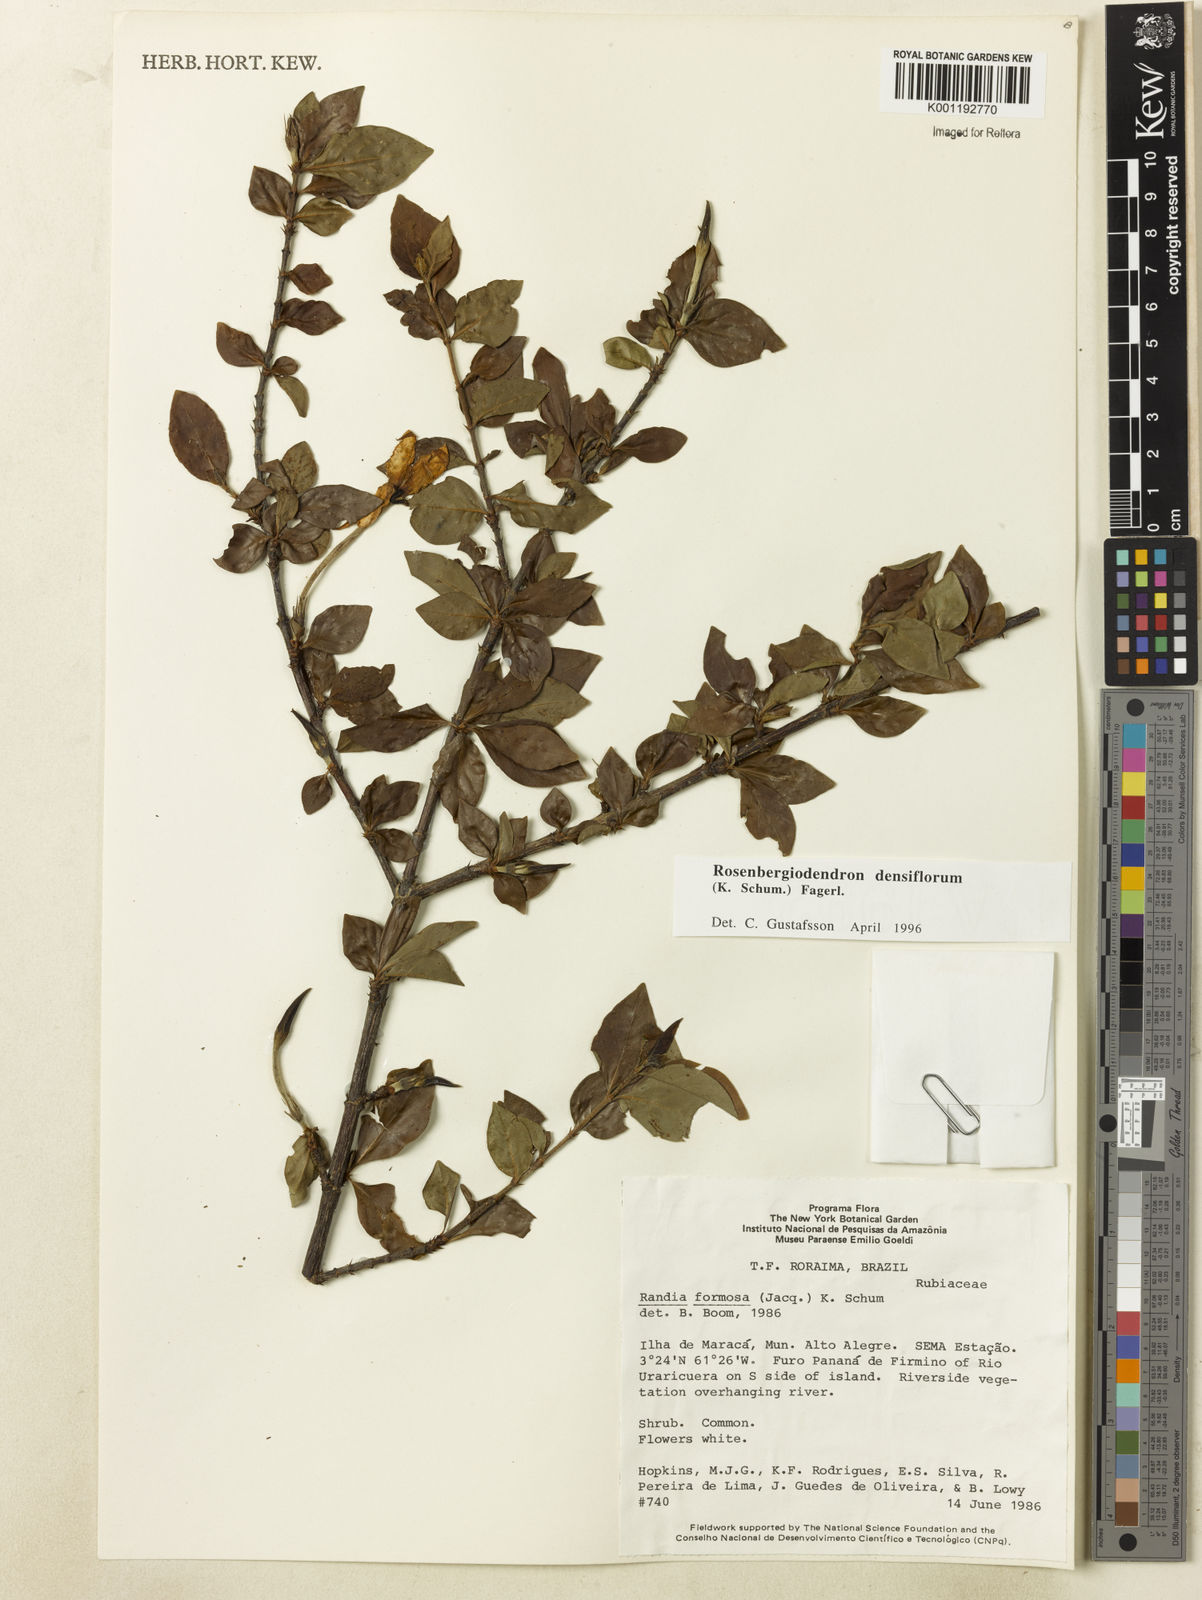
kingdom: Plantae
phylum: Tracheophyta
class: Magnoliopsida
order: Gentianales
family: Rubiaceae
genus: Rosenbergiodendron
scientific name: Rosenbergiodendron densiflorum
